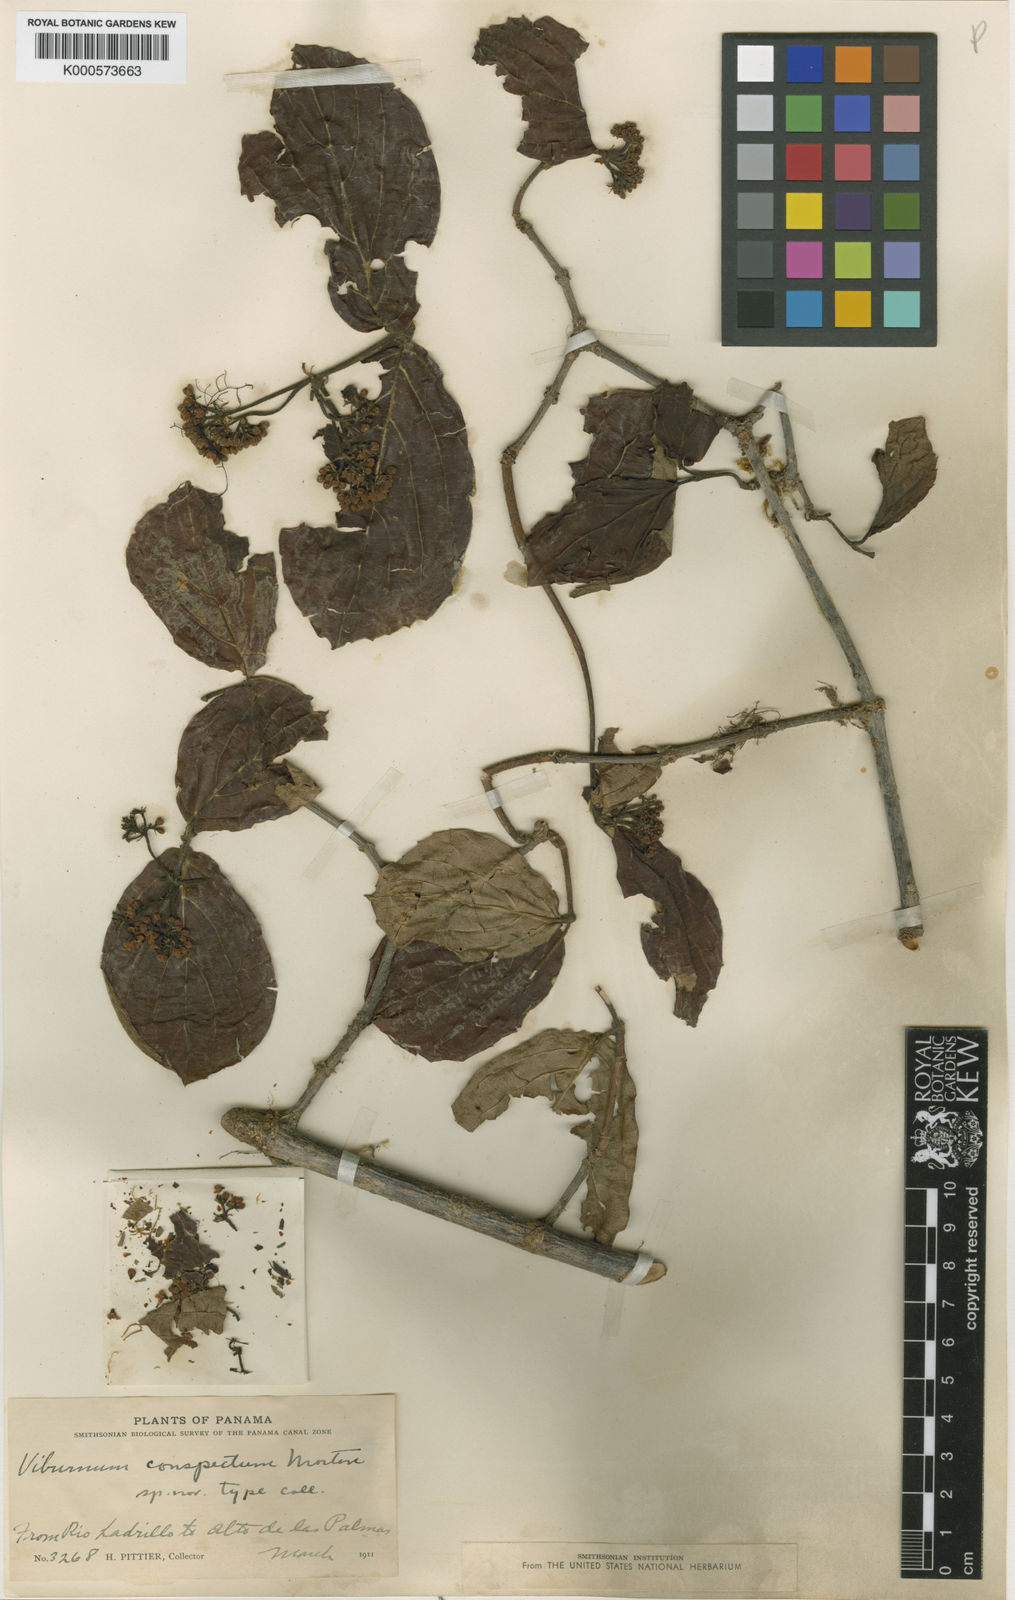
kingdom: Plantae
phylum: Tracheophyta
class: Magnoliopsida
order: Dipsacales
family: Viburnaceae
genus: Viburnum
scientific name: Viburnum costaricanum
